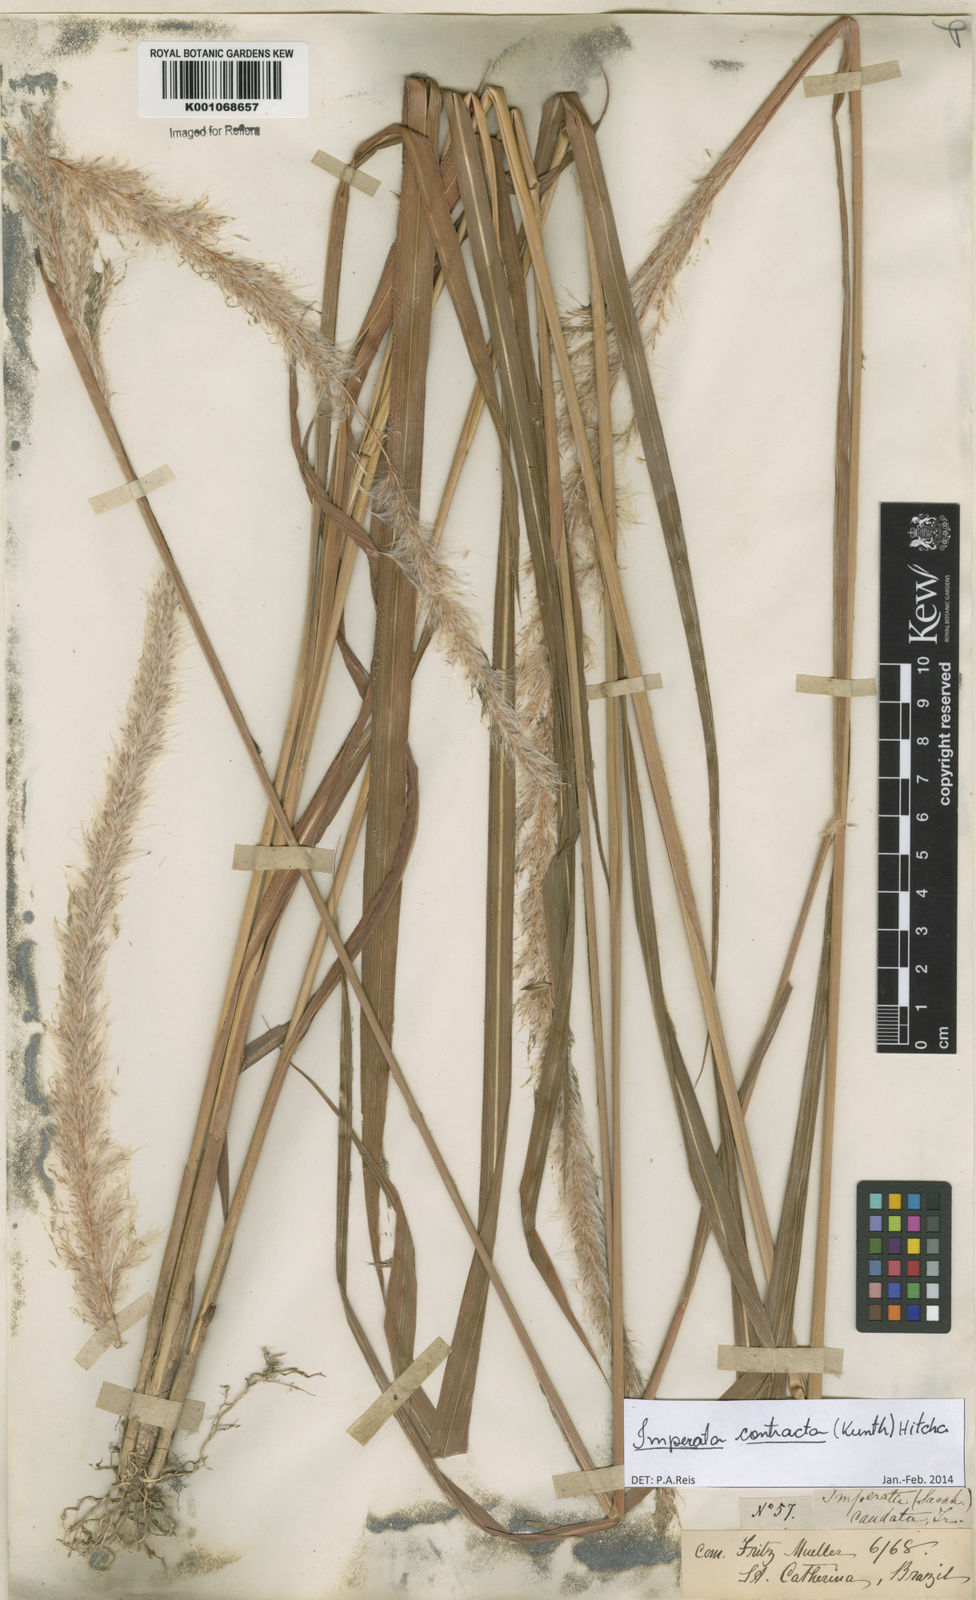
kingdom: Plantae
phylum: Tracheophyta
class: Liliopsida
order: Poales
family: Poaceae
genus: Imperata
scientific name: Imperata contracta
